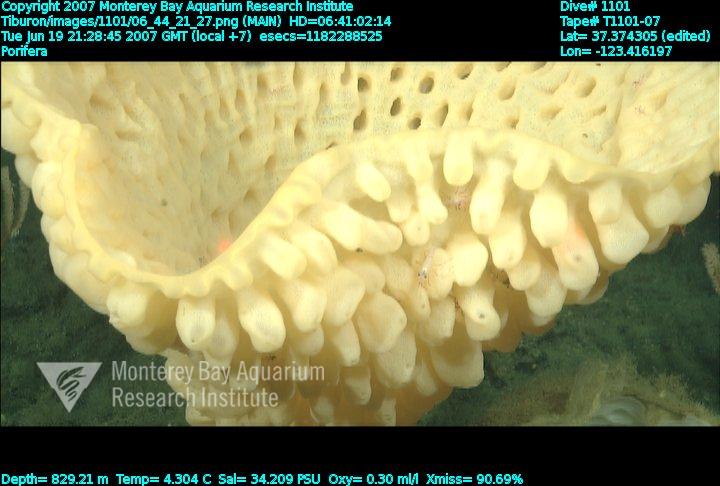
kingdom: Animalia
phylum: Porifera
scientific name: Porifera
